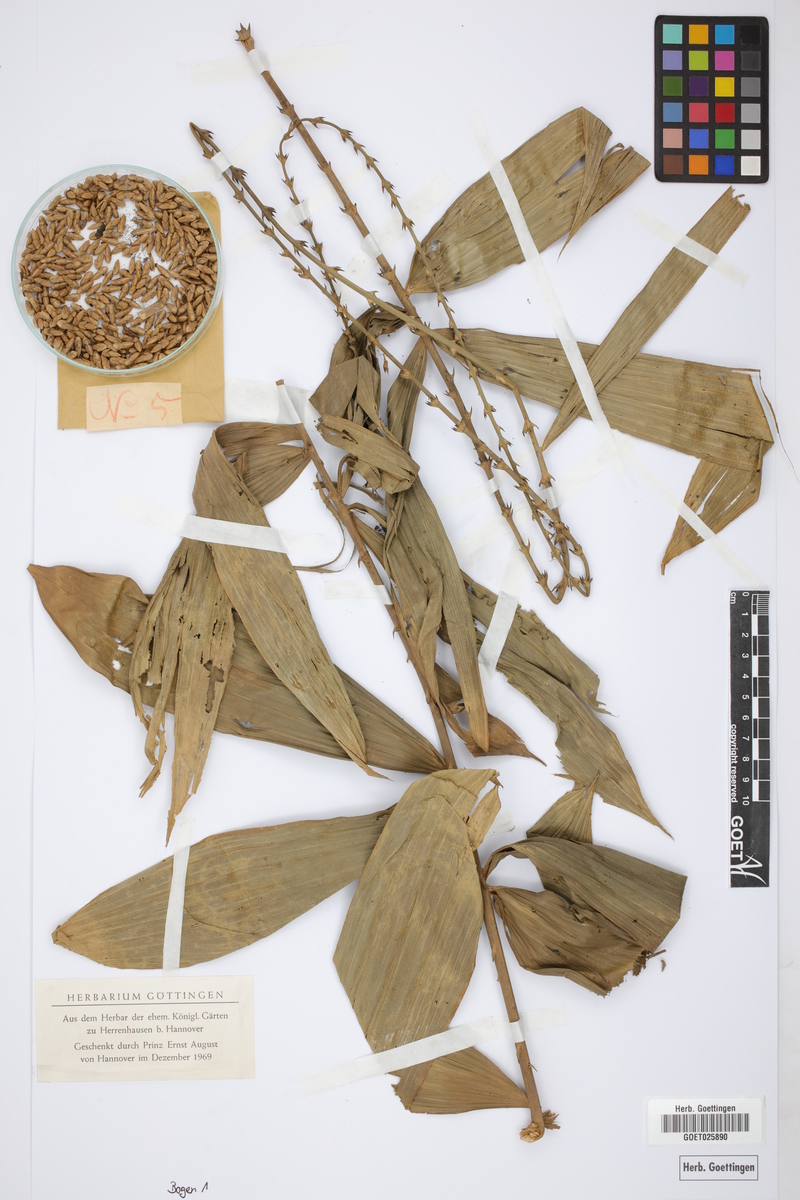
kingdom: Plantae
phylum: Tracheophyta
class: Liliopsida
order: Arecales
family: Arecaceae
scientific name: Arecaceae
